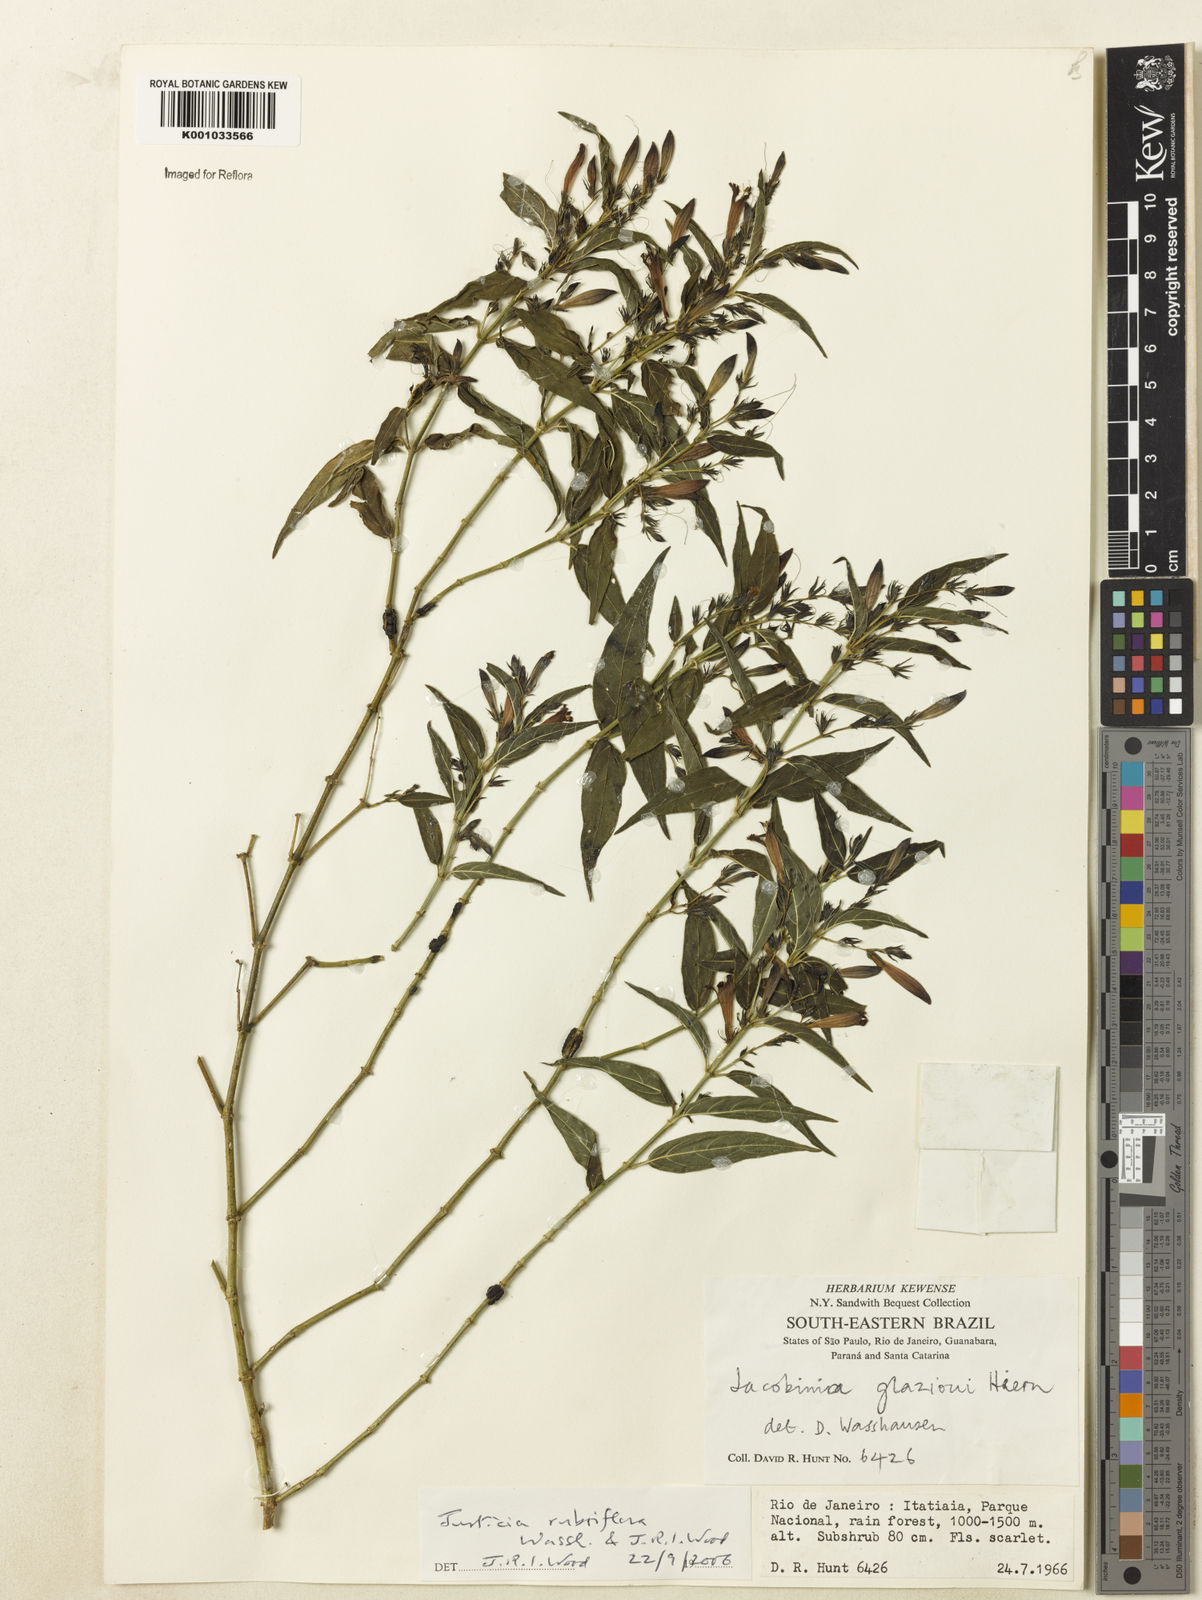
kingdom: Plantae
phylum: Tracheophyta
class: Magnoliopsida
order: Lamiales
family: Acanthaceae
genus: Justicia
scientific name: Justicia rubriflora
